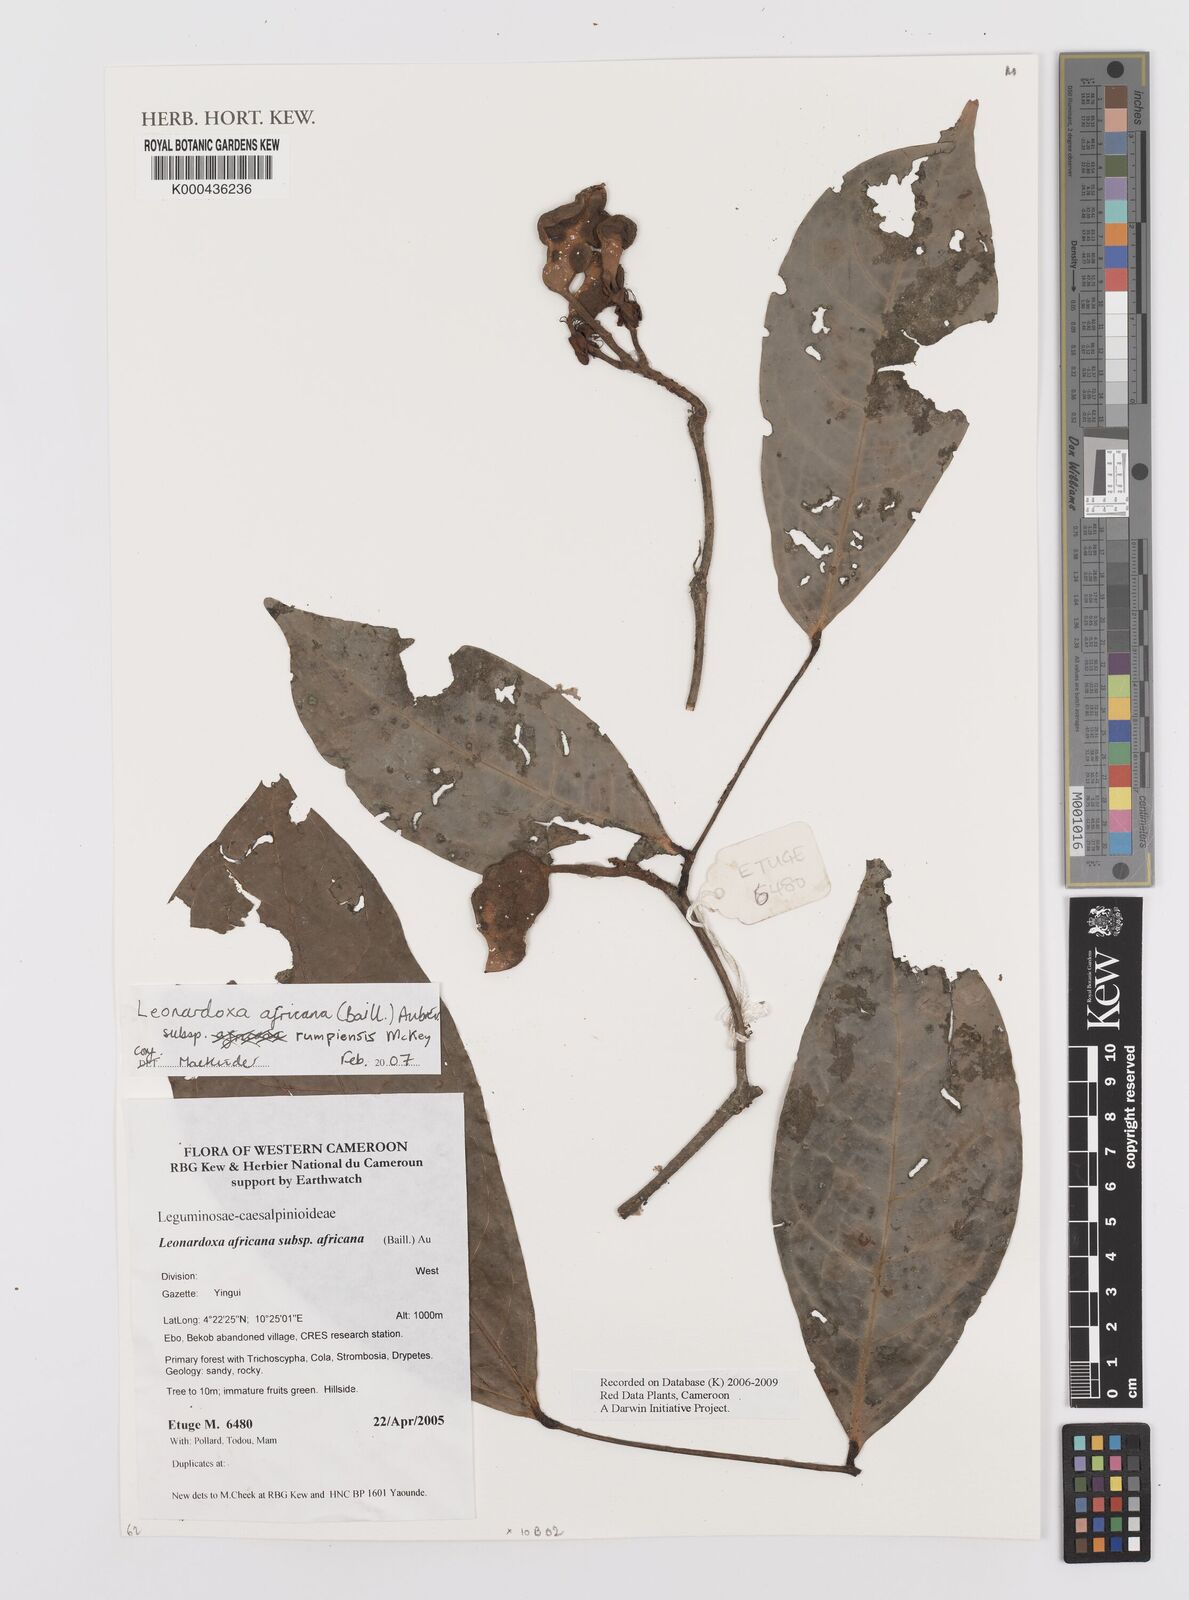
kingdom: Plantae
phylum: Tracheophyta
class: Magnoliopsida
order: Fabales
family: Fabaceae
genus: Leonardoxa
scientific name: Leonardoxa
